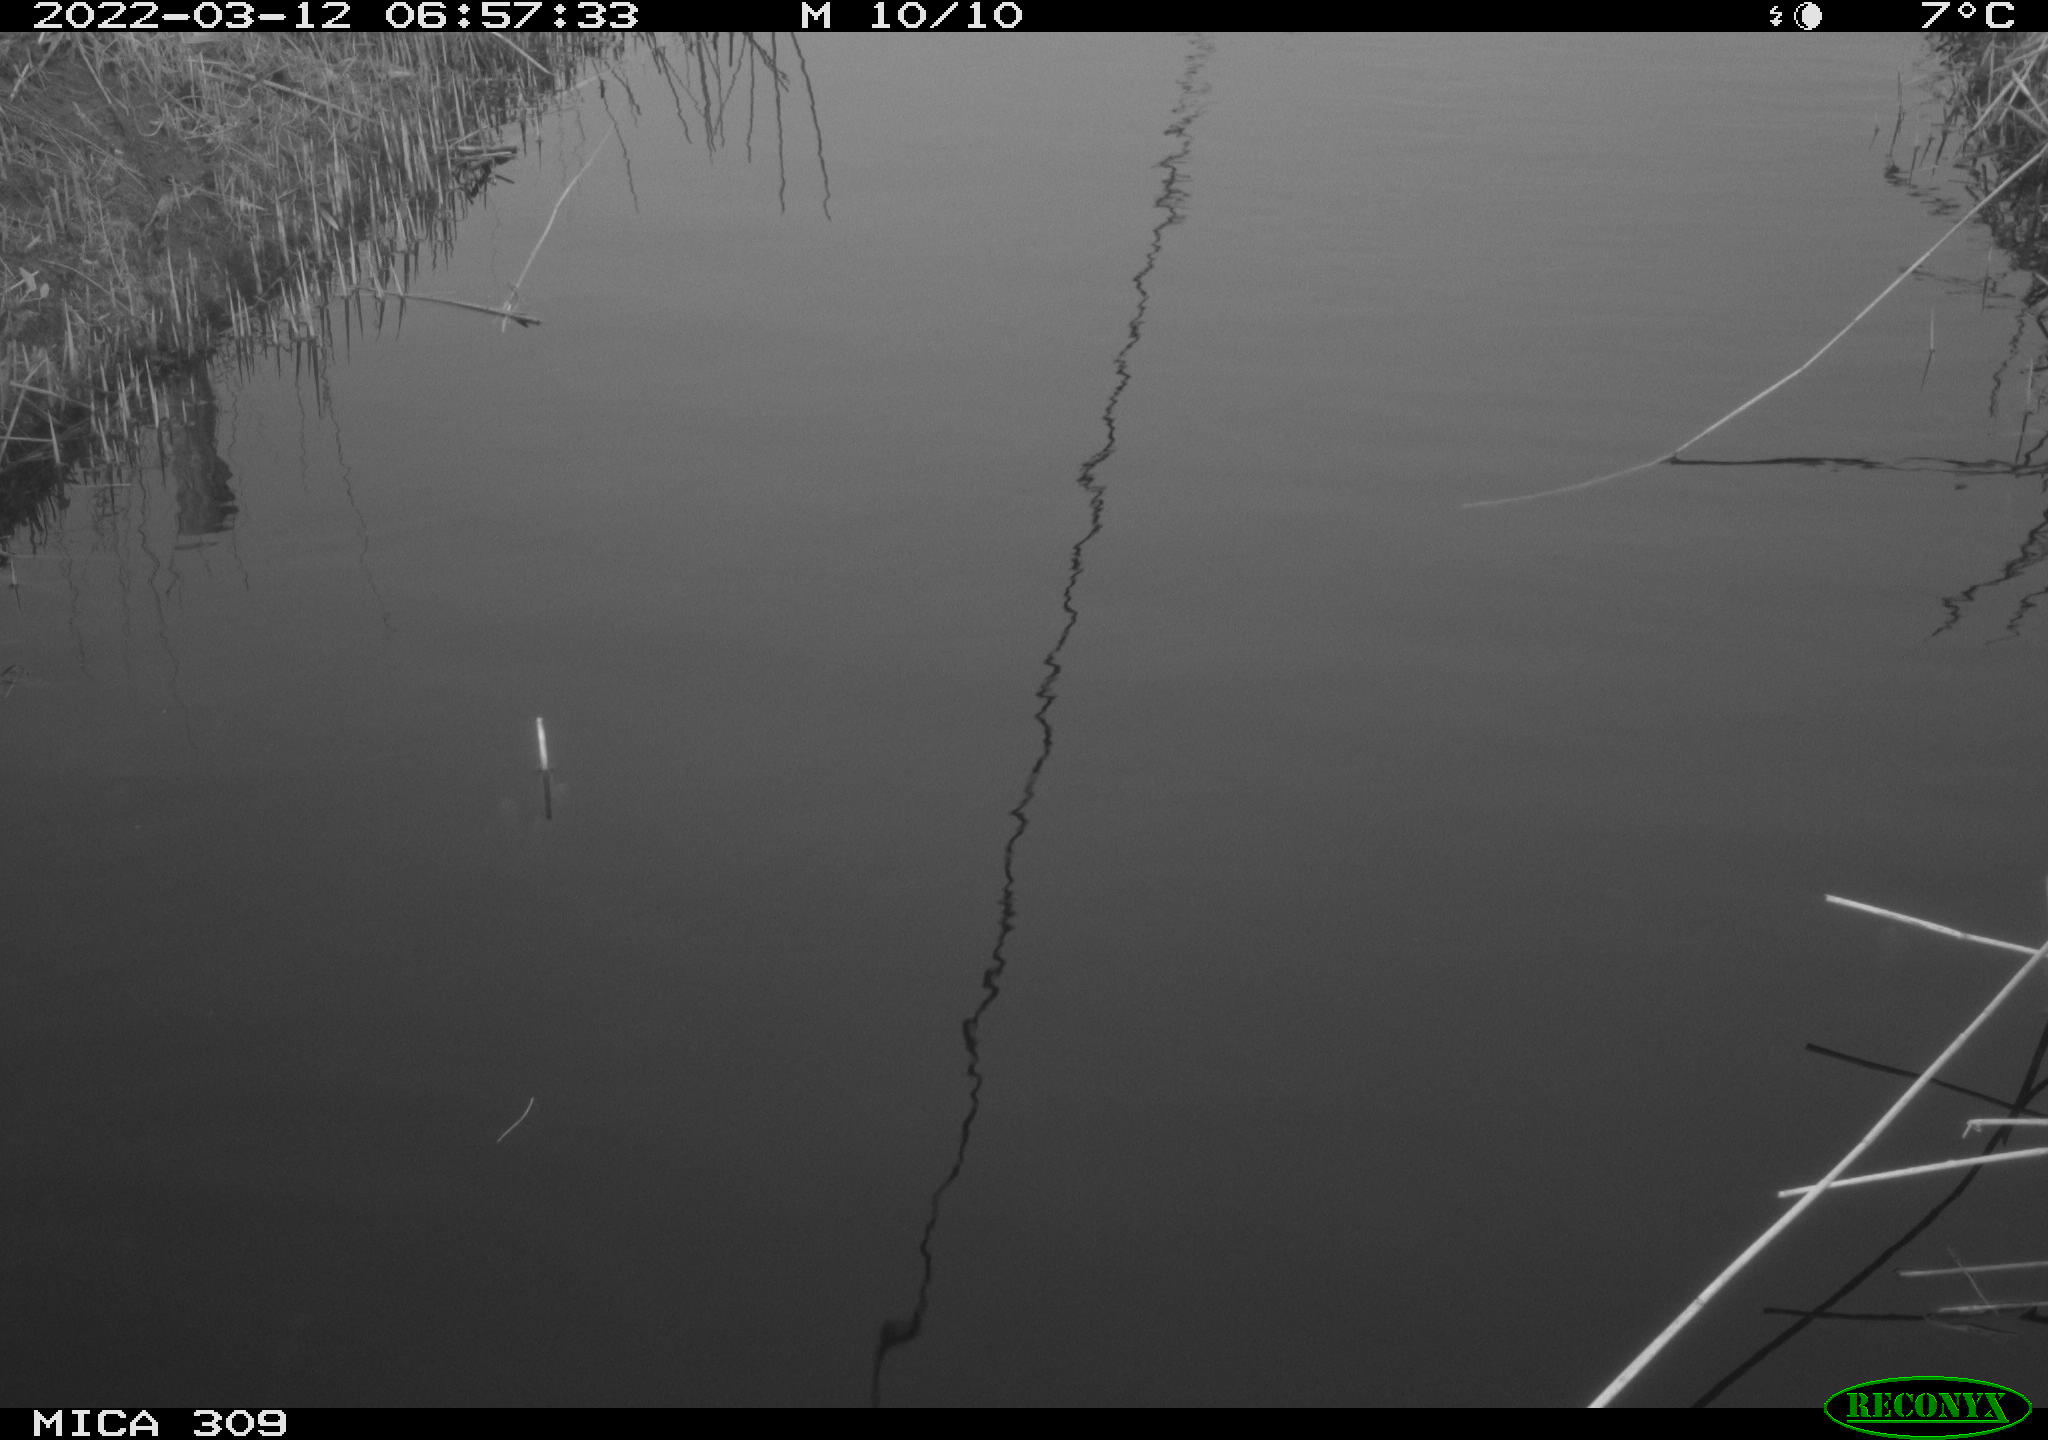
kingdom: Animalia
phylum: Chordata
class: Aves
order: Gruiformes
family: Rallidae
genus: Gallinula
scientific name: Gallinula chloropus
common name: Common moorhen
